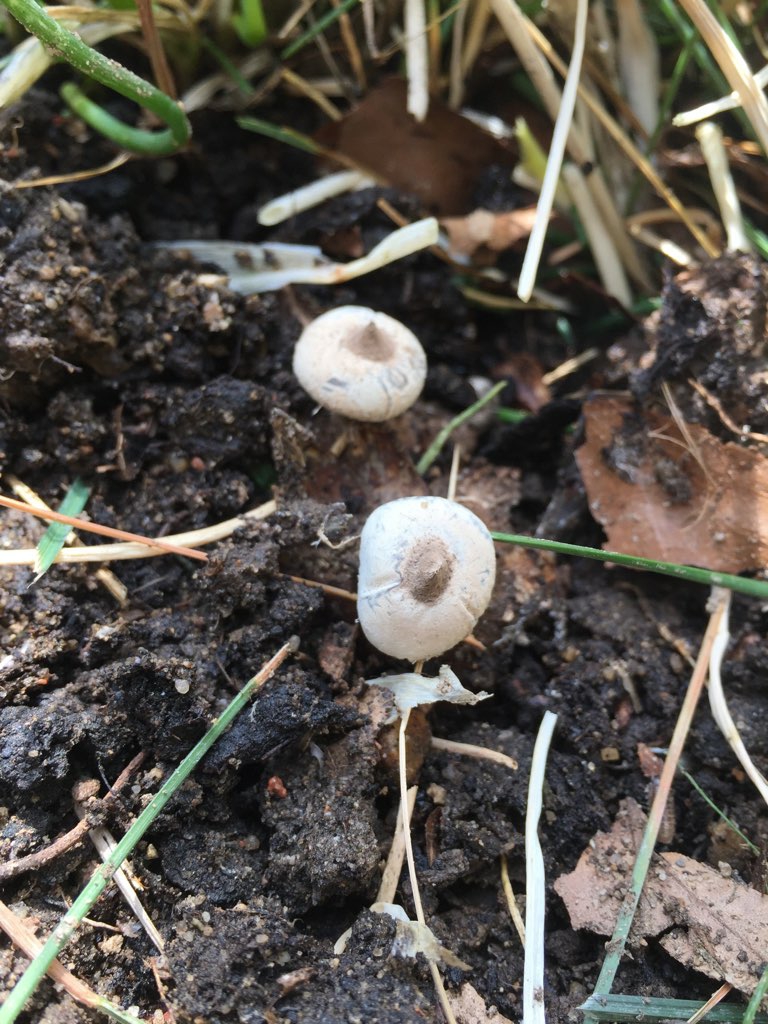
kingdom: Fungi
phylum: Basidiomycota
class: Agaricomycetes
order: Geastrales
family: Geastraceae
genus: Geastrum
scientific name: Geastrum striatum
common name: krave-stjernebold
